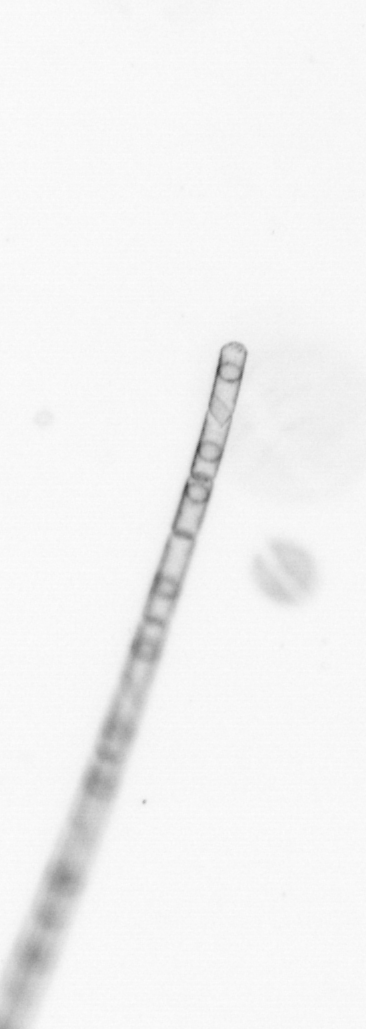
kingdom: Chromista
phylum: Ochrophyta
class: Bacillariophyceae
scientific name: Bacillariophyceae
